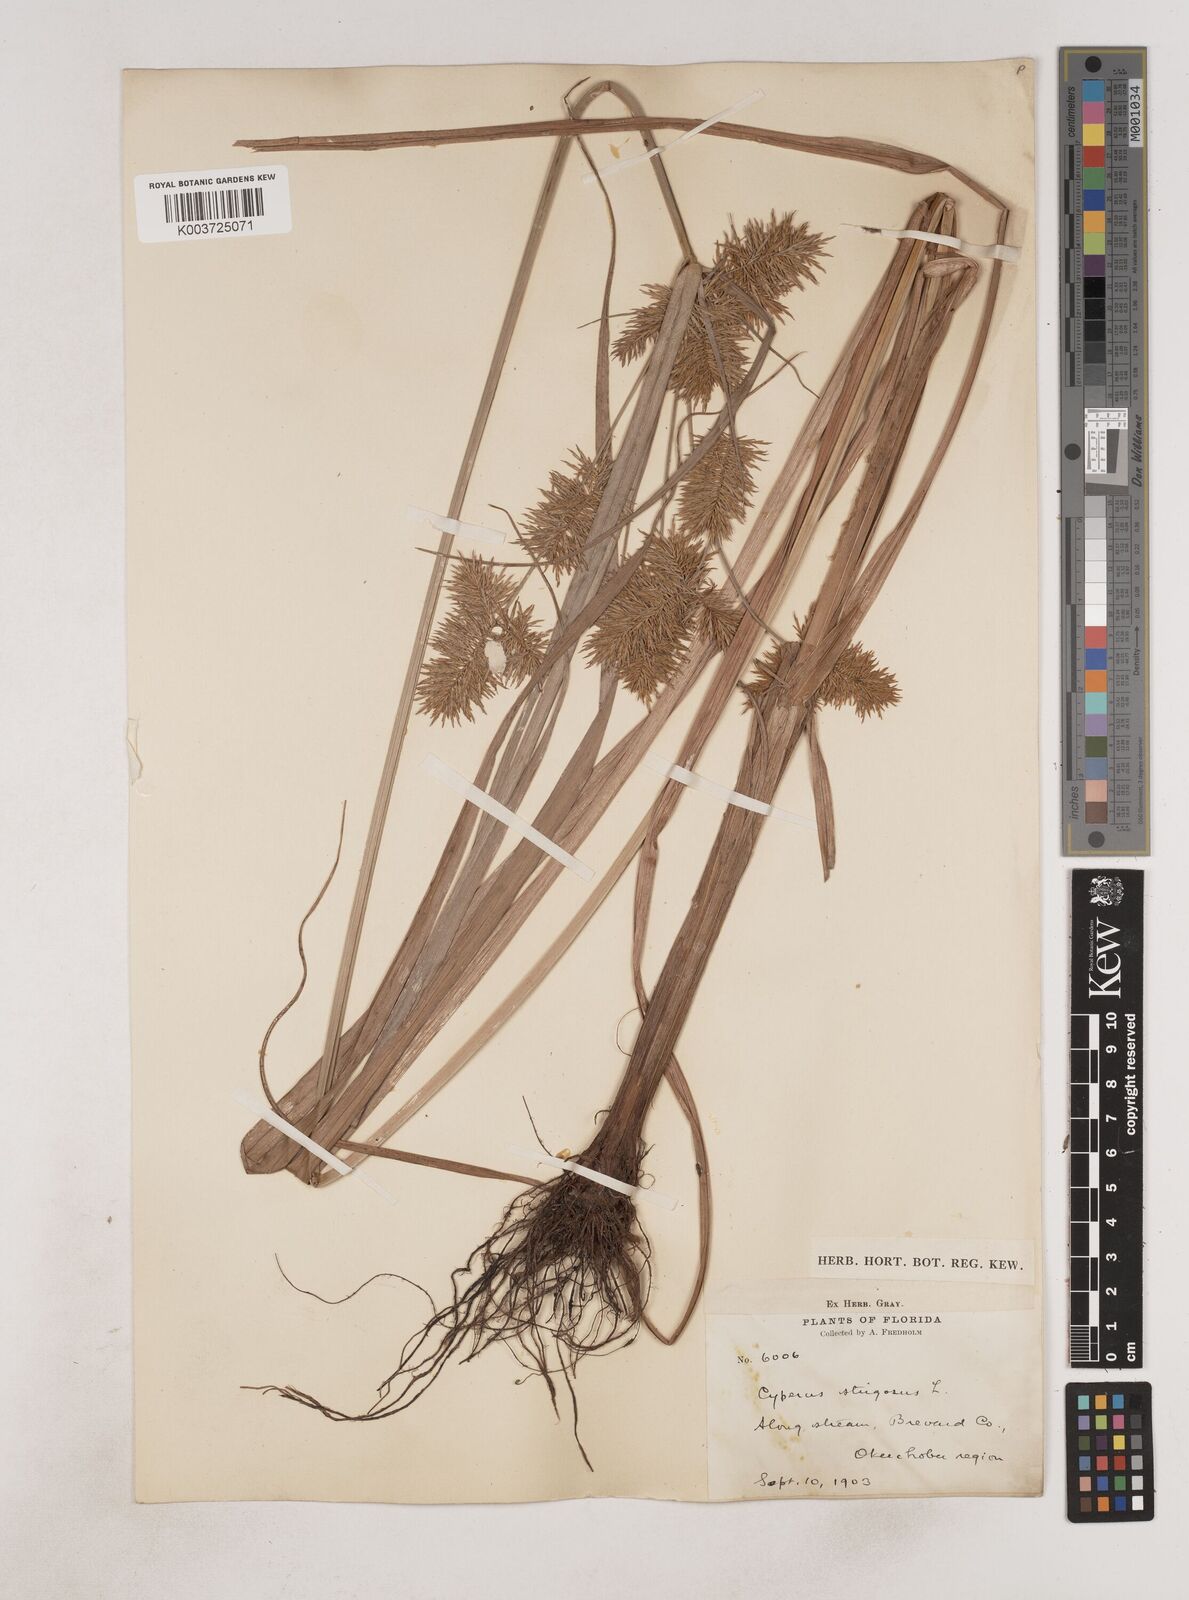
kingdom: Plantae
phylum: Tracheophyta
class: Liliopsida
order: Poales
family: Cyperaceae
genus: Cyperus
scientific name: Cyperus strigosus
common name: False nutsedge
